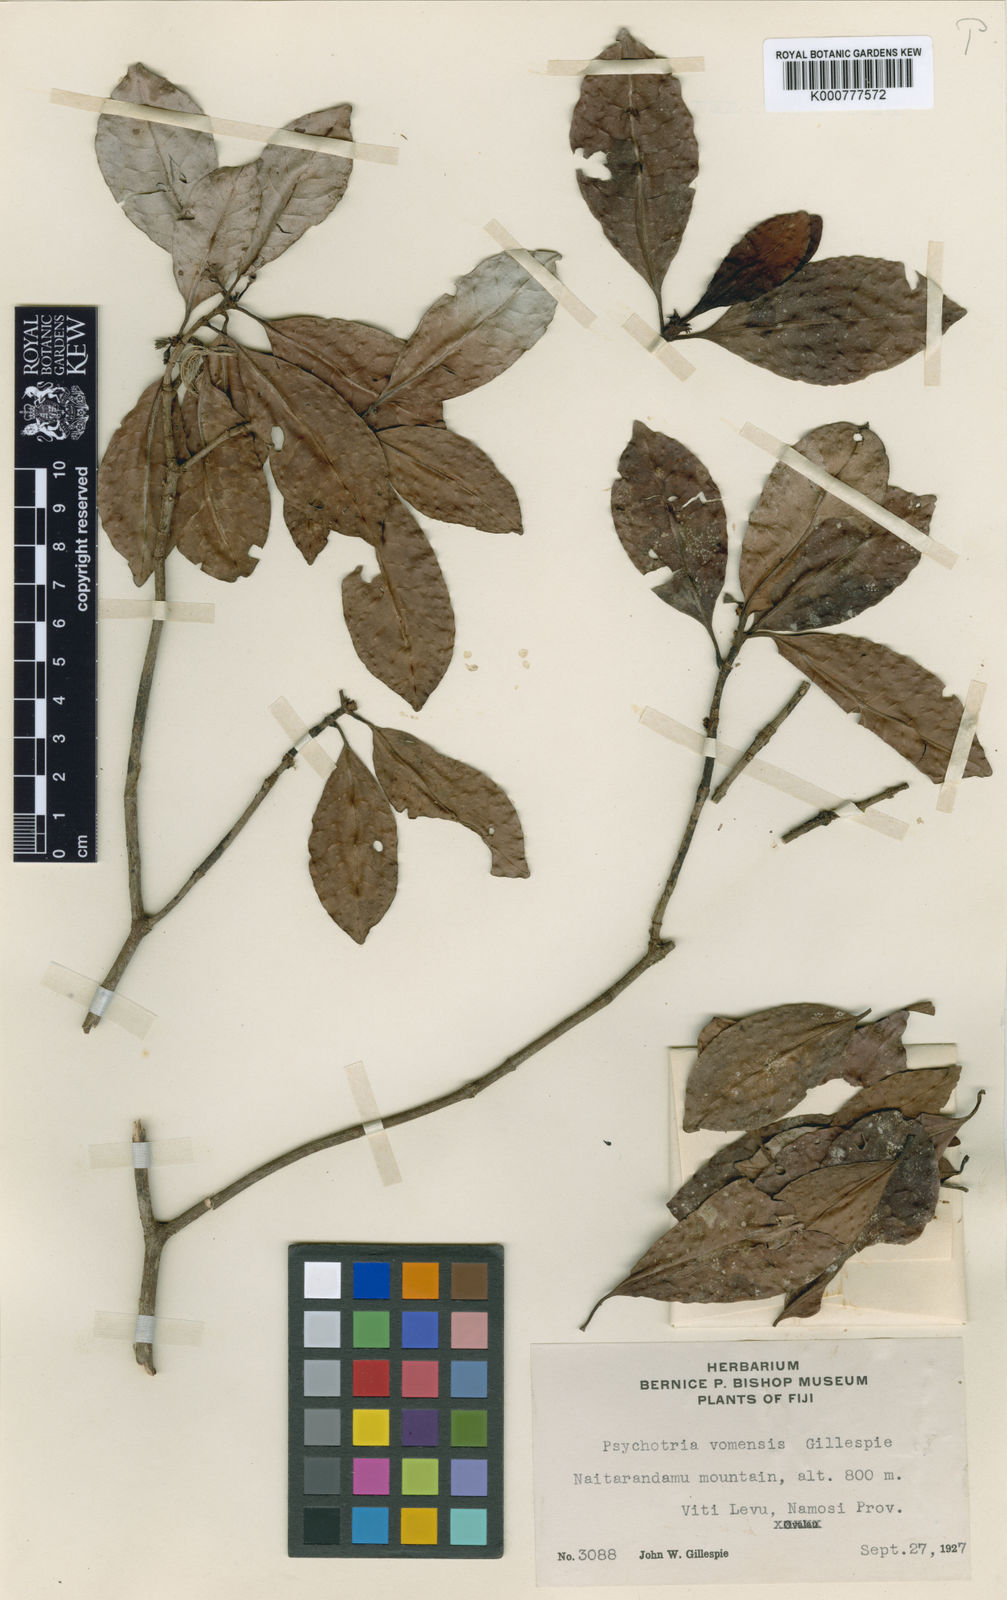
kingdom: Plantae
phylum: Tracheophyta
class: Magnoliopsida
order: Gentianales
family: Rubiaceae
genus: Psychotria
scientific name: Psychotria vomensis
